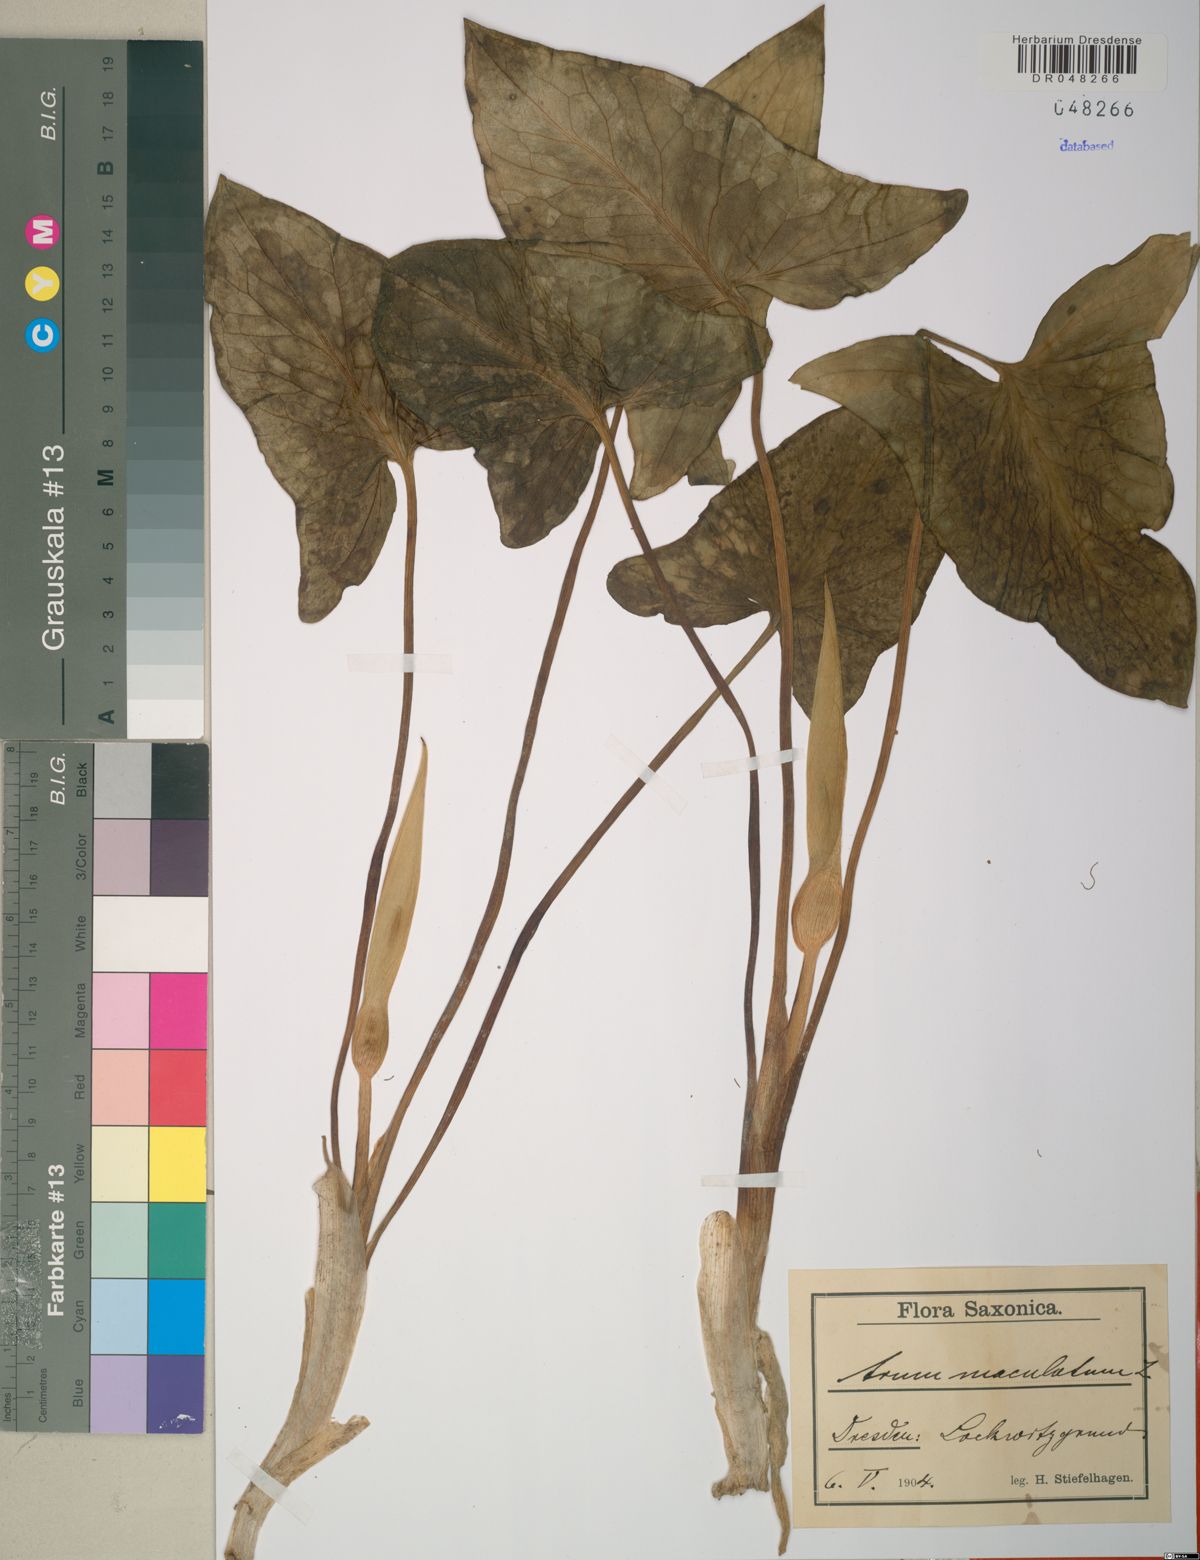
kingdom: Plantae
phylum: Tracheophyta
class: Liliopsida
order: Alismatales
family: Araceae
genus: Arum
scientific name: Arum maculatum
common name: Lords-and-ladies
